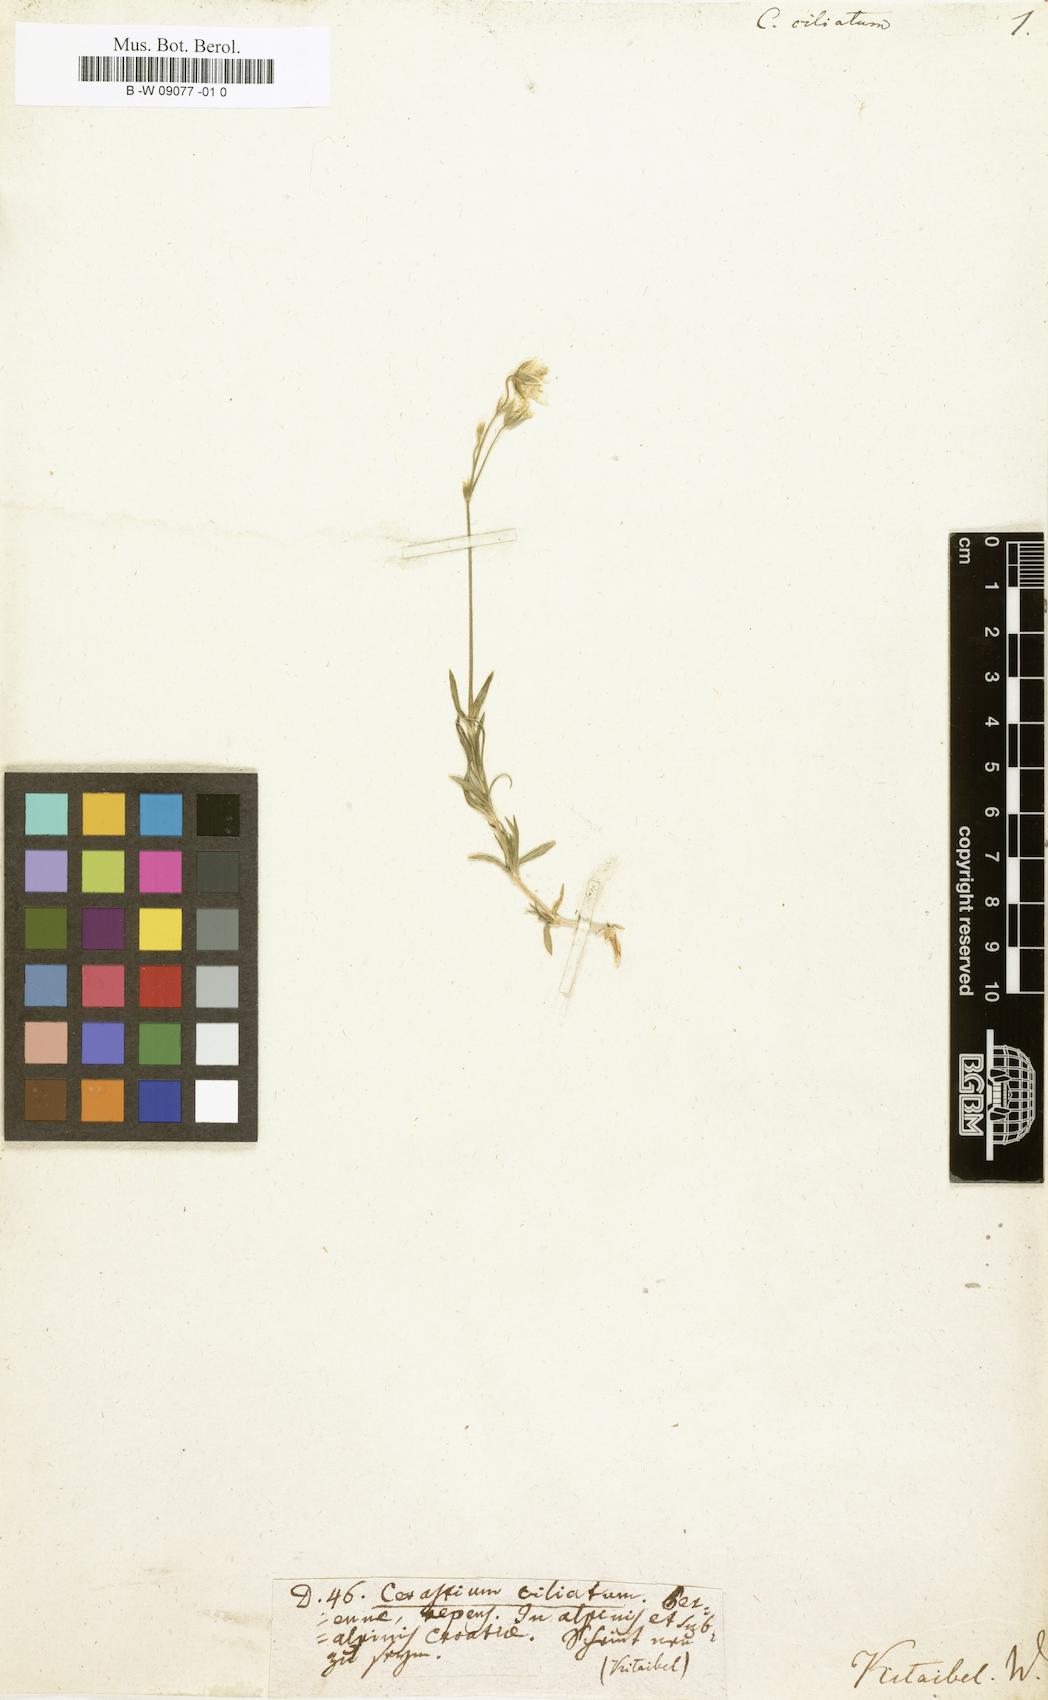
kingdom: Plantae
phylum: Tracheophyta
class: Magnoliopsida
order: Caryophyllales
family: Caryophyllaceae
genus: Cerastium
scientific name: Cerastium
